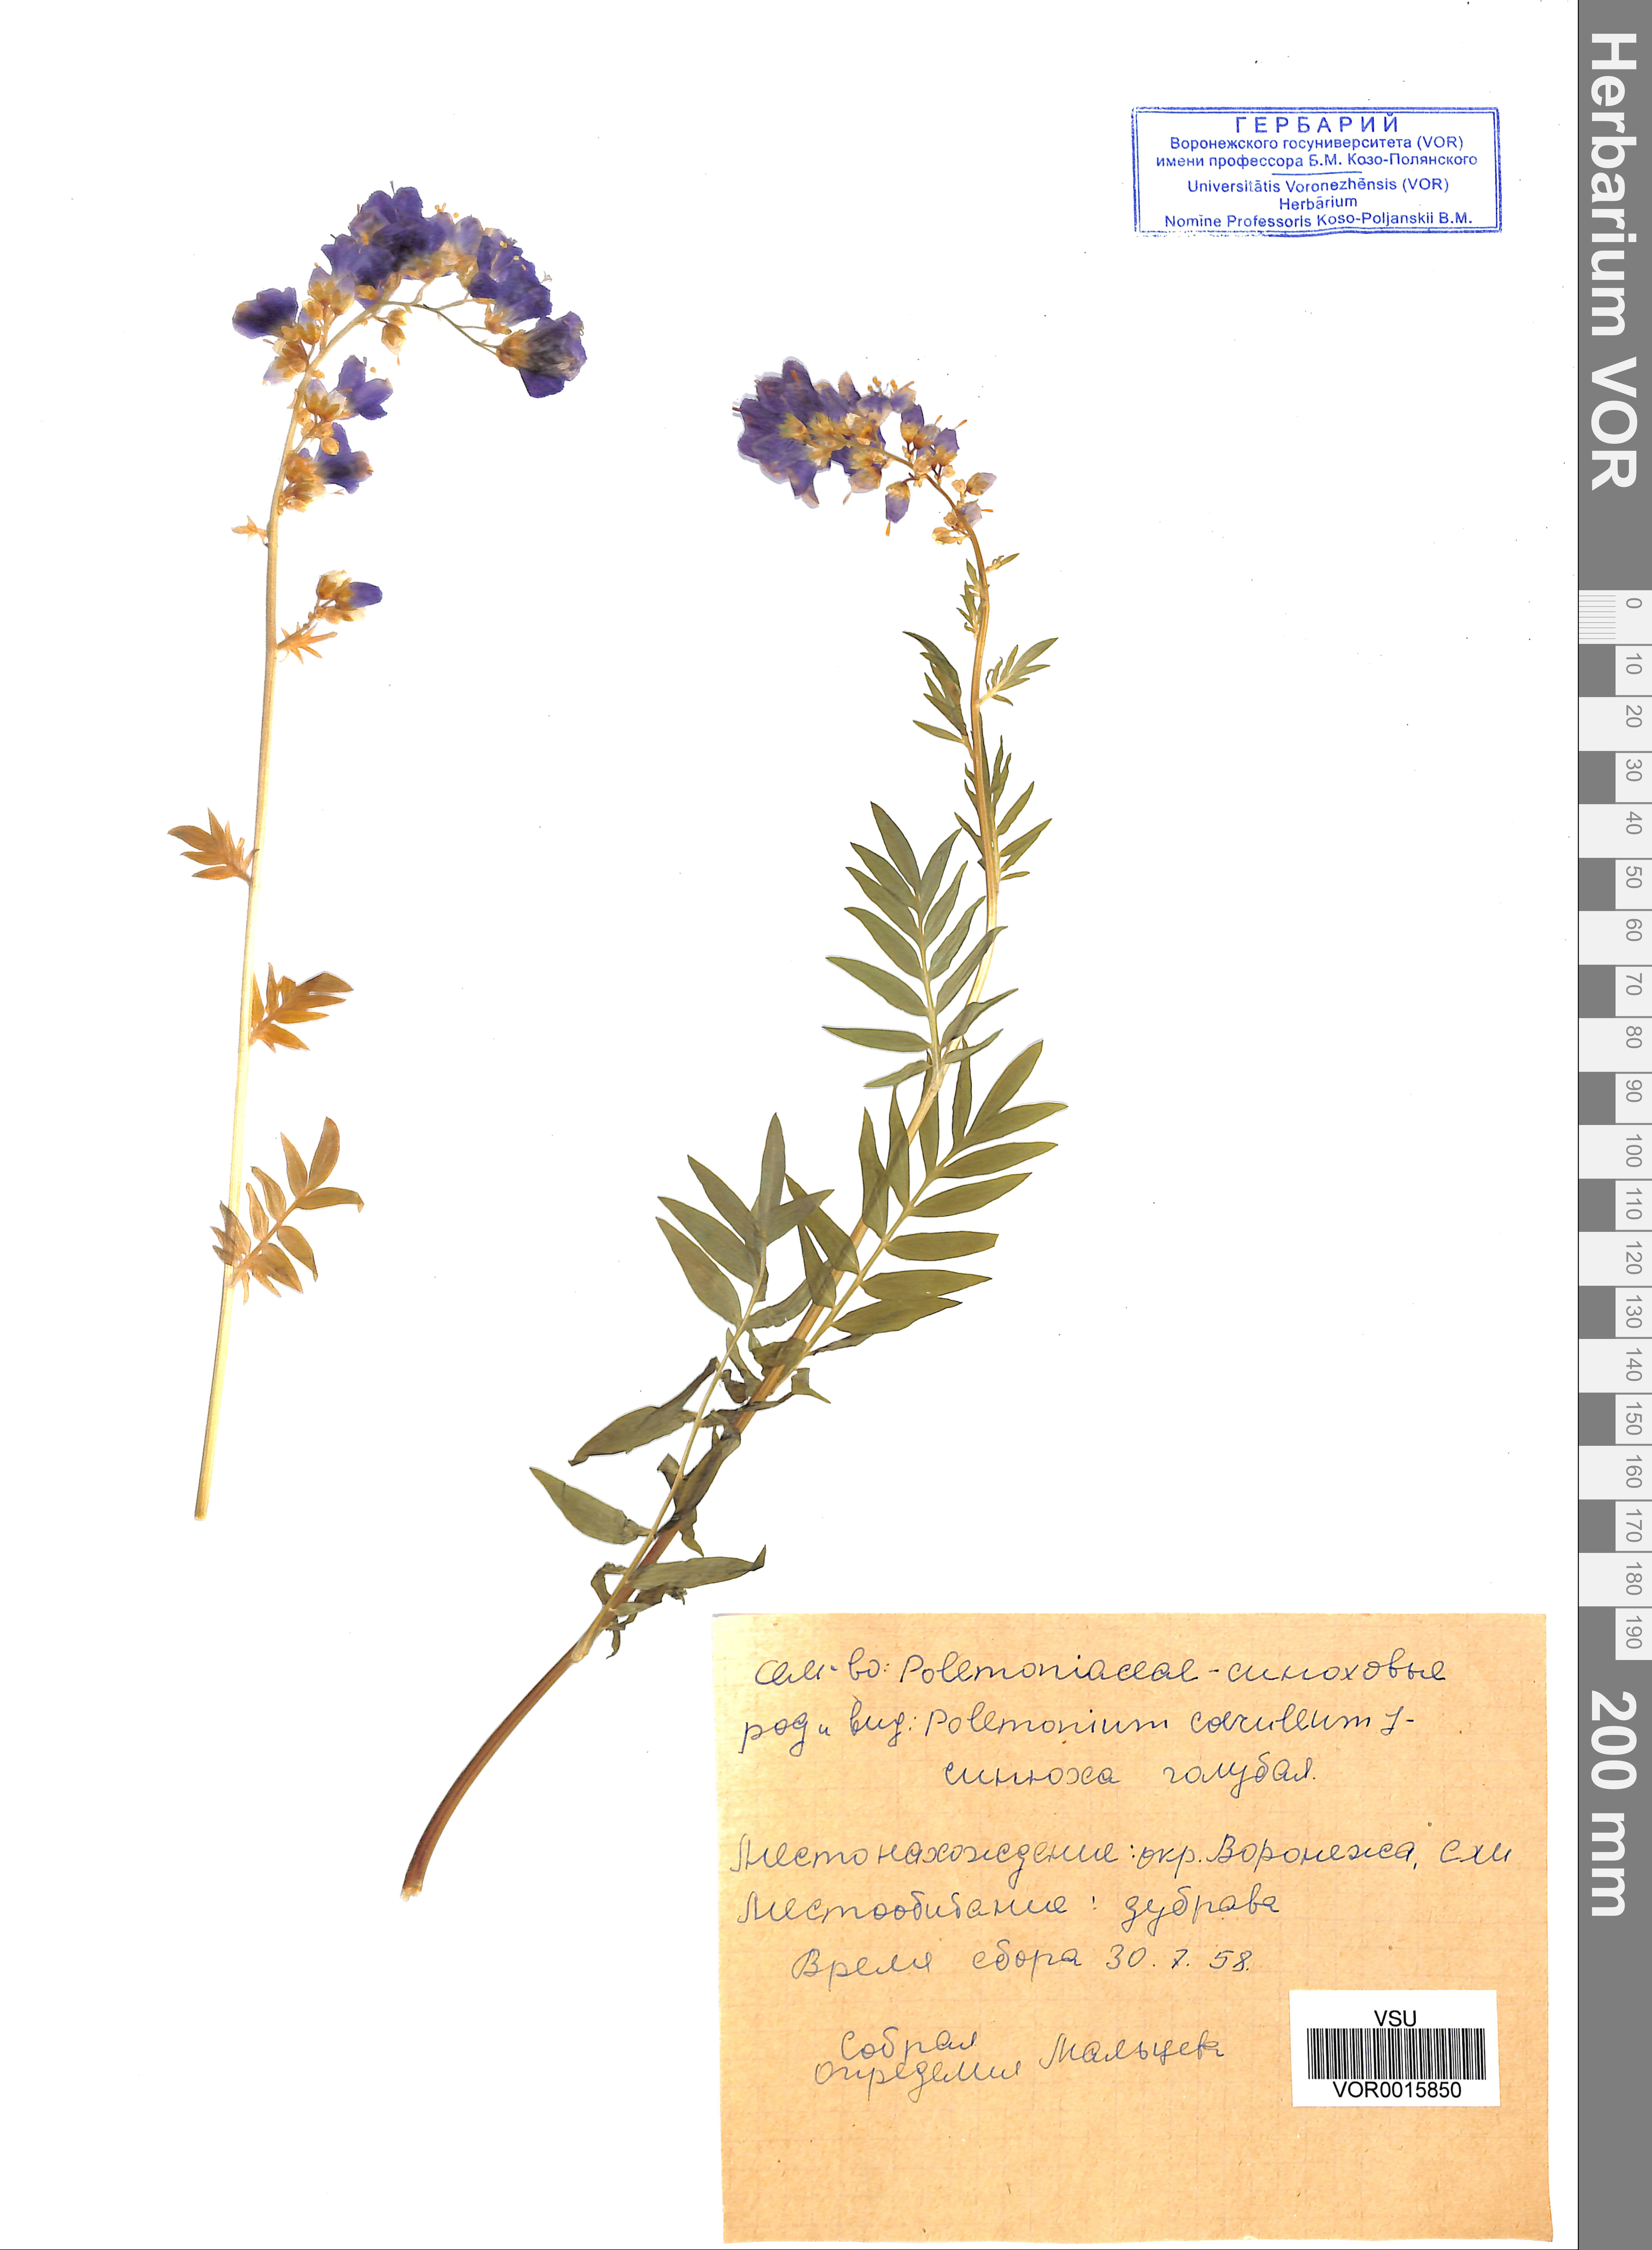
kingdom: Plantae
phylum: Tracheophyta
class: Magnoliopsida
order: Ericales
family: Polemoniaceae
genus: Polemonium
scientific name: Polemonium caeruleum
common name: Jacob's-ladder
